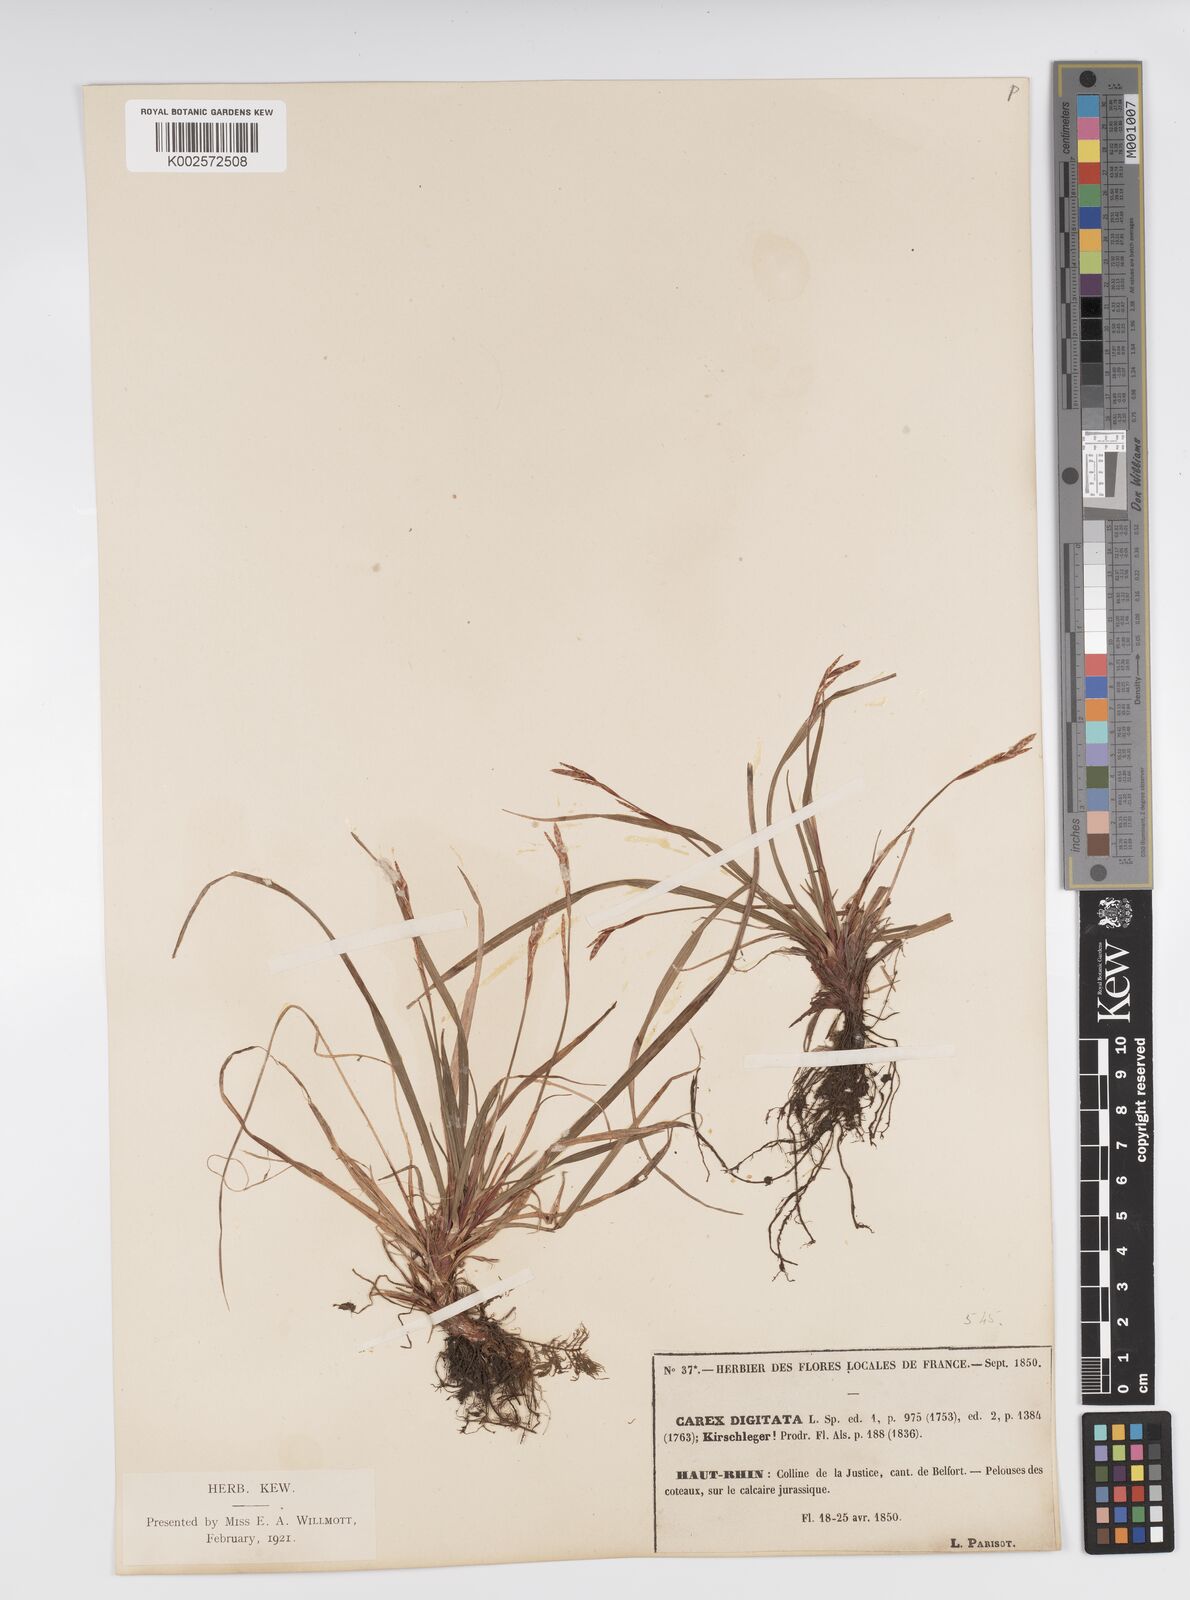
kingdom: Plantae
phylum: Tracheophyta
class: Liliopsida
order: Poales
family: Cyperaceae
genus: Carex
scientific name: Carex digitata
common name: Fingered sedge
